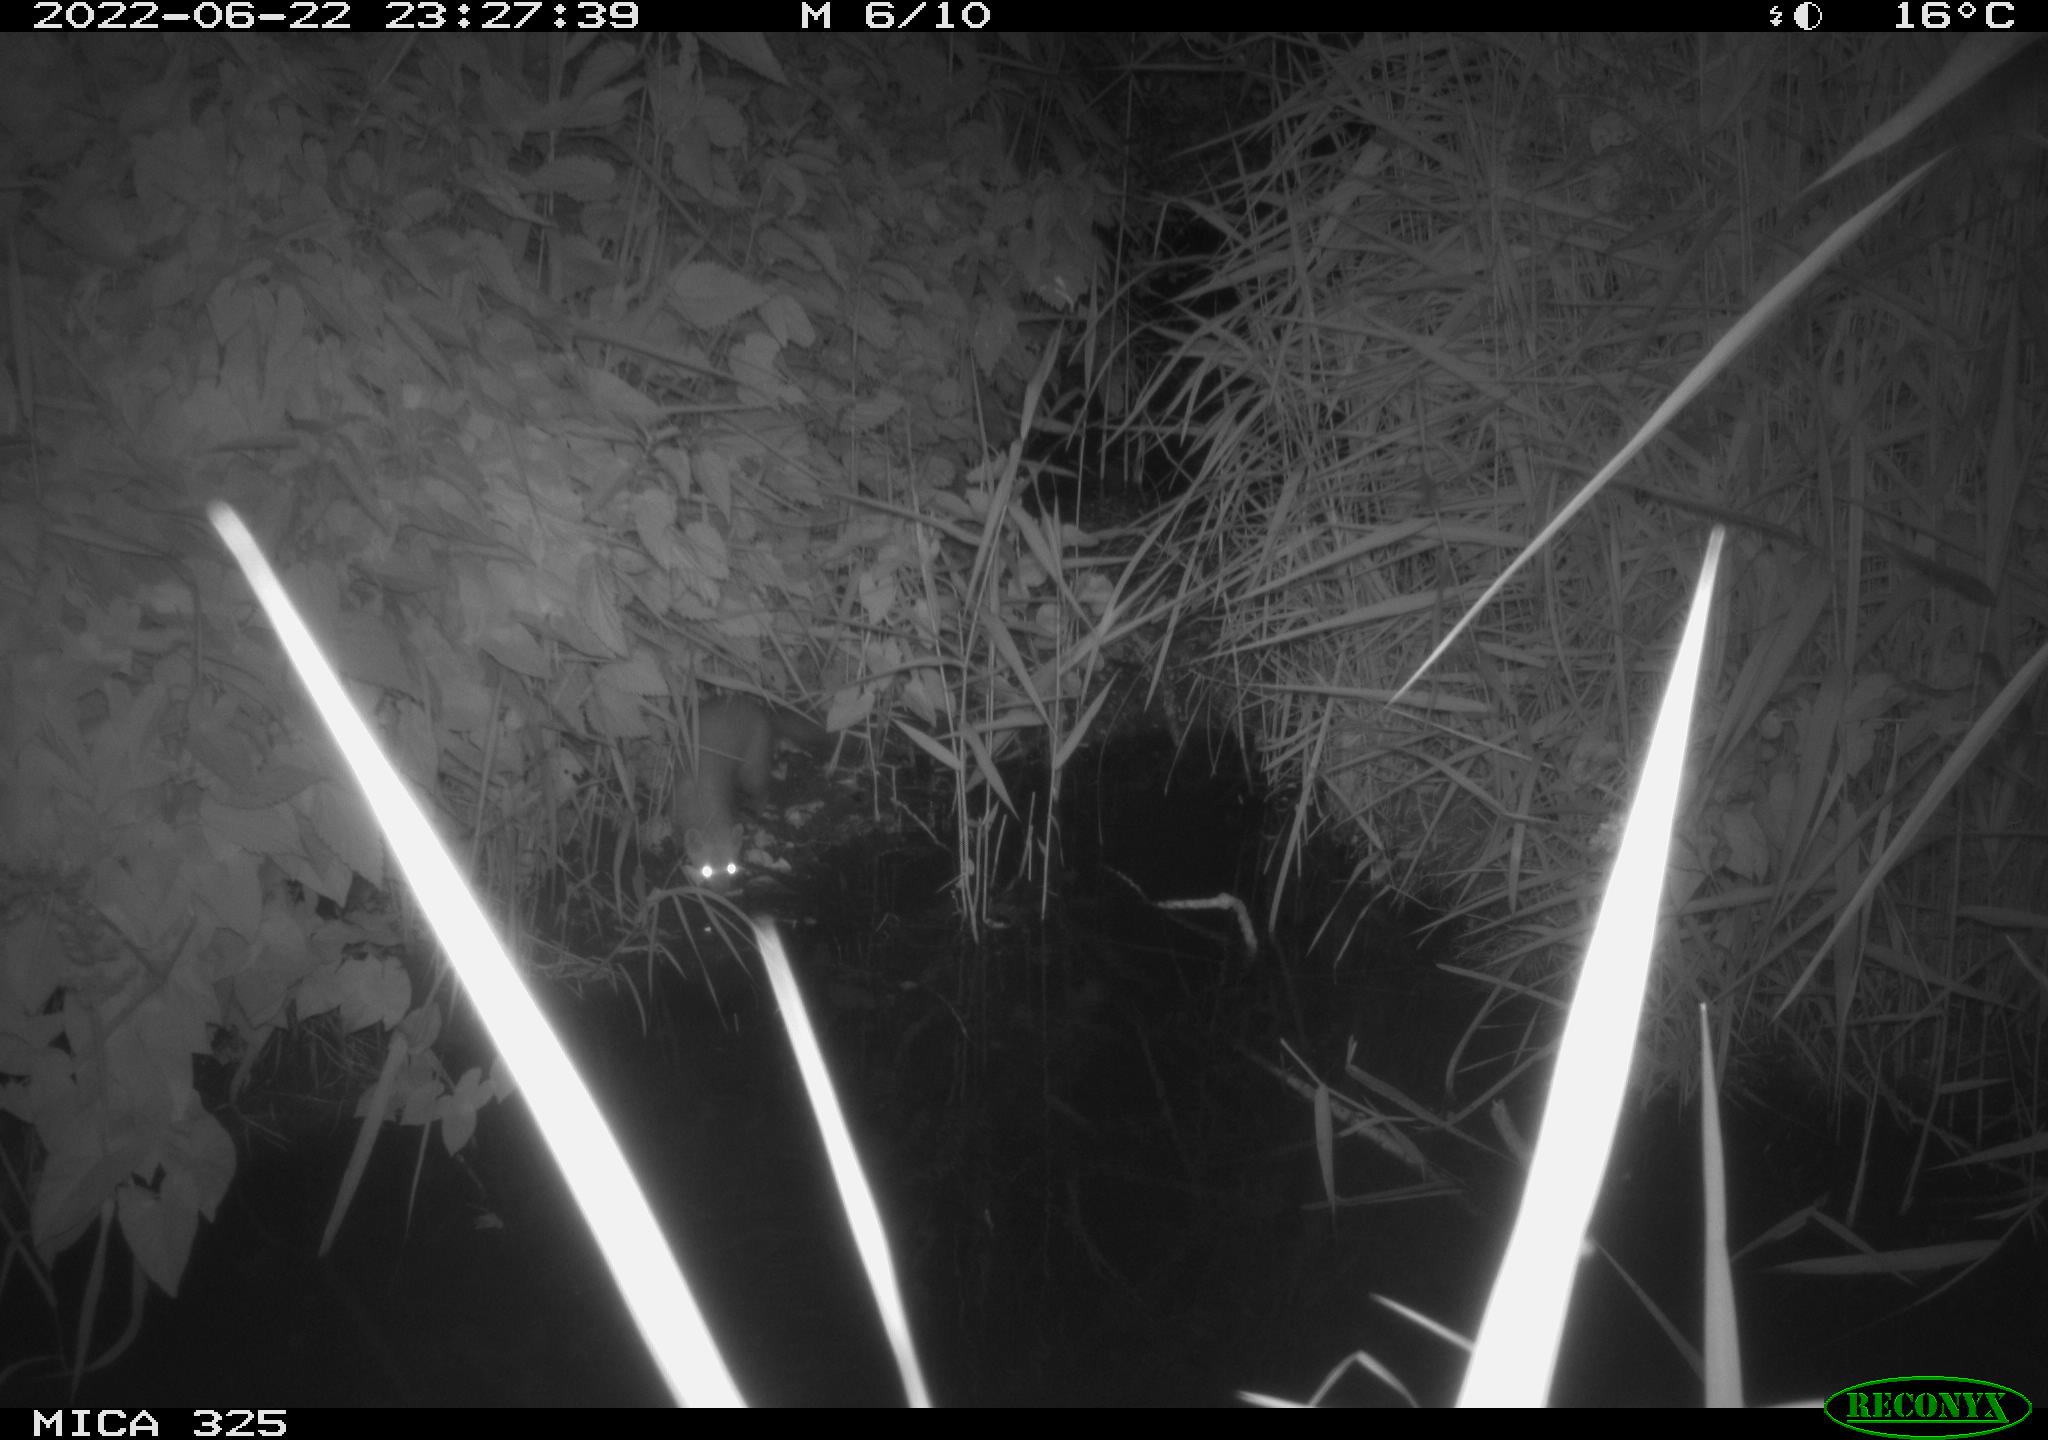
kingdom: Animalia
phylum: Chordata
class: Mammalia
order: Rodentia
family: Muridae
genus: Rattus
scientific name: Rattus norvegicus
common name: Brown rat
